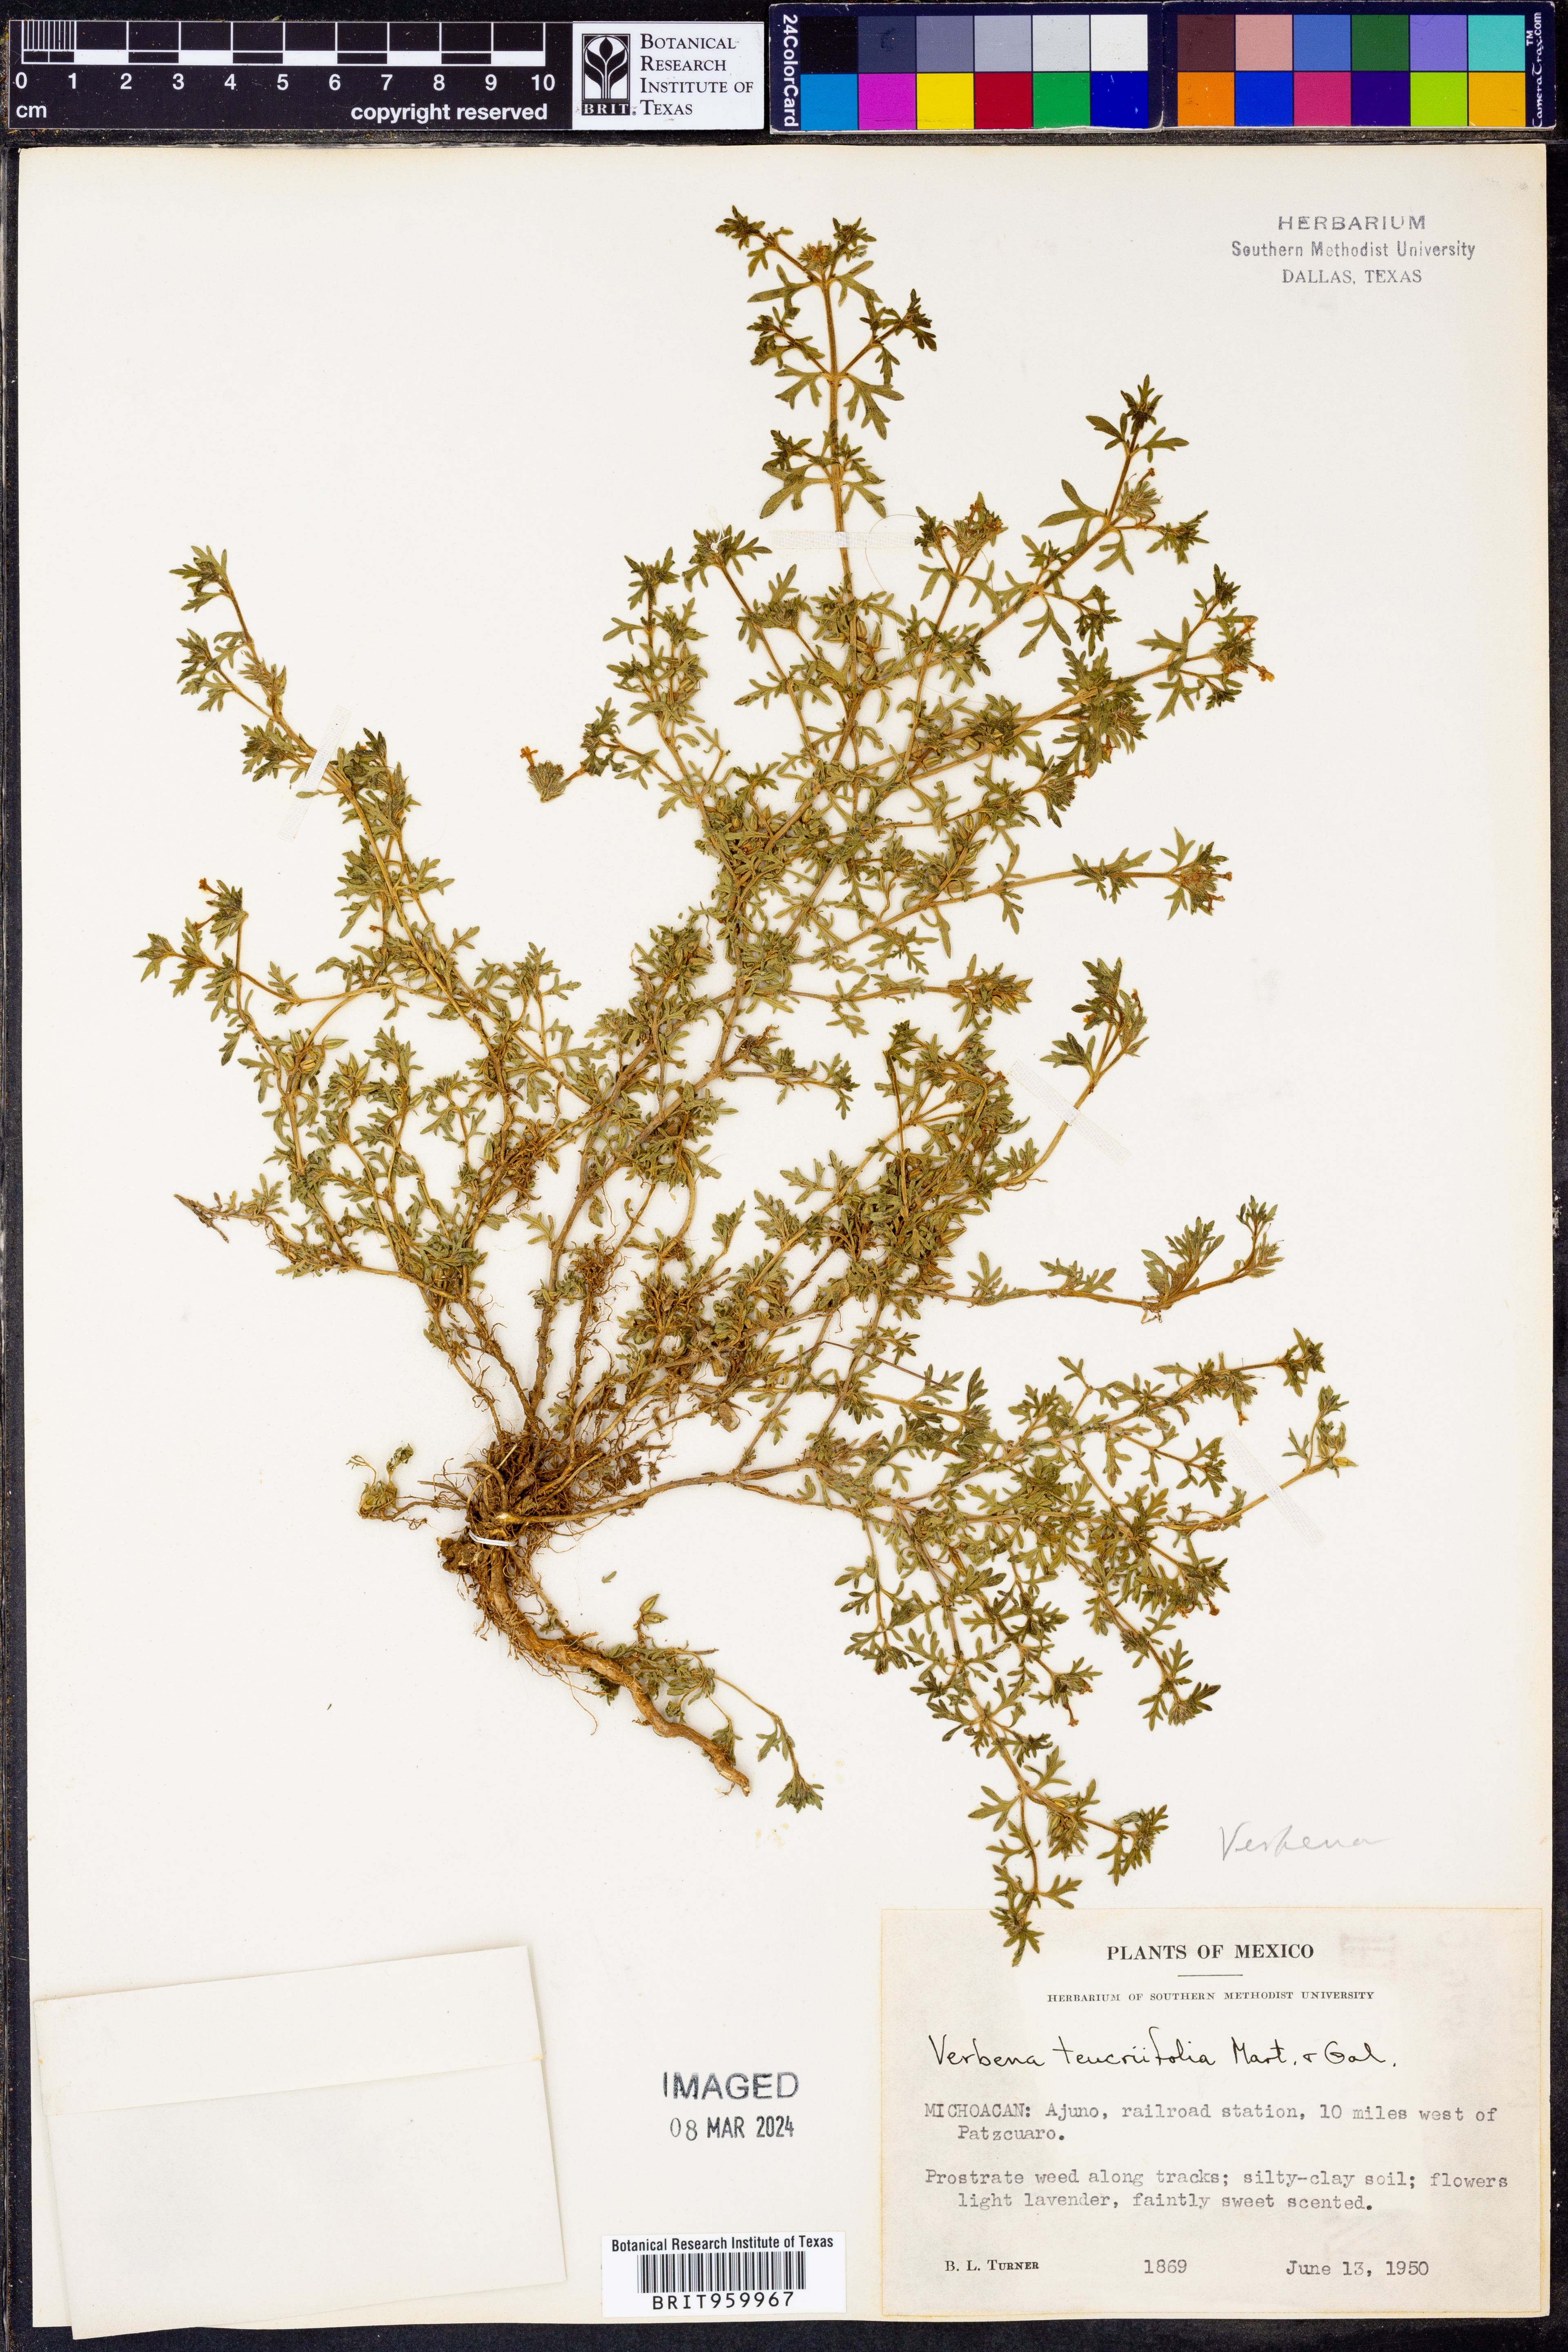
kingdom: Plantae
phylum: Tracheophyta
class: Magnoliopsida
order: Lamiales
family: Verbenaceae
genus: Verbena
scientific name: Verbena teucriifolia
